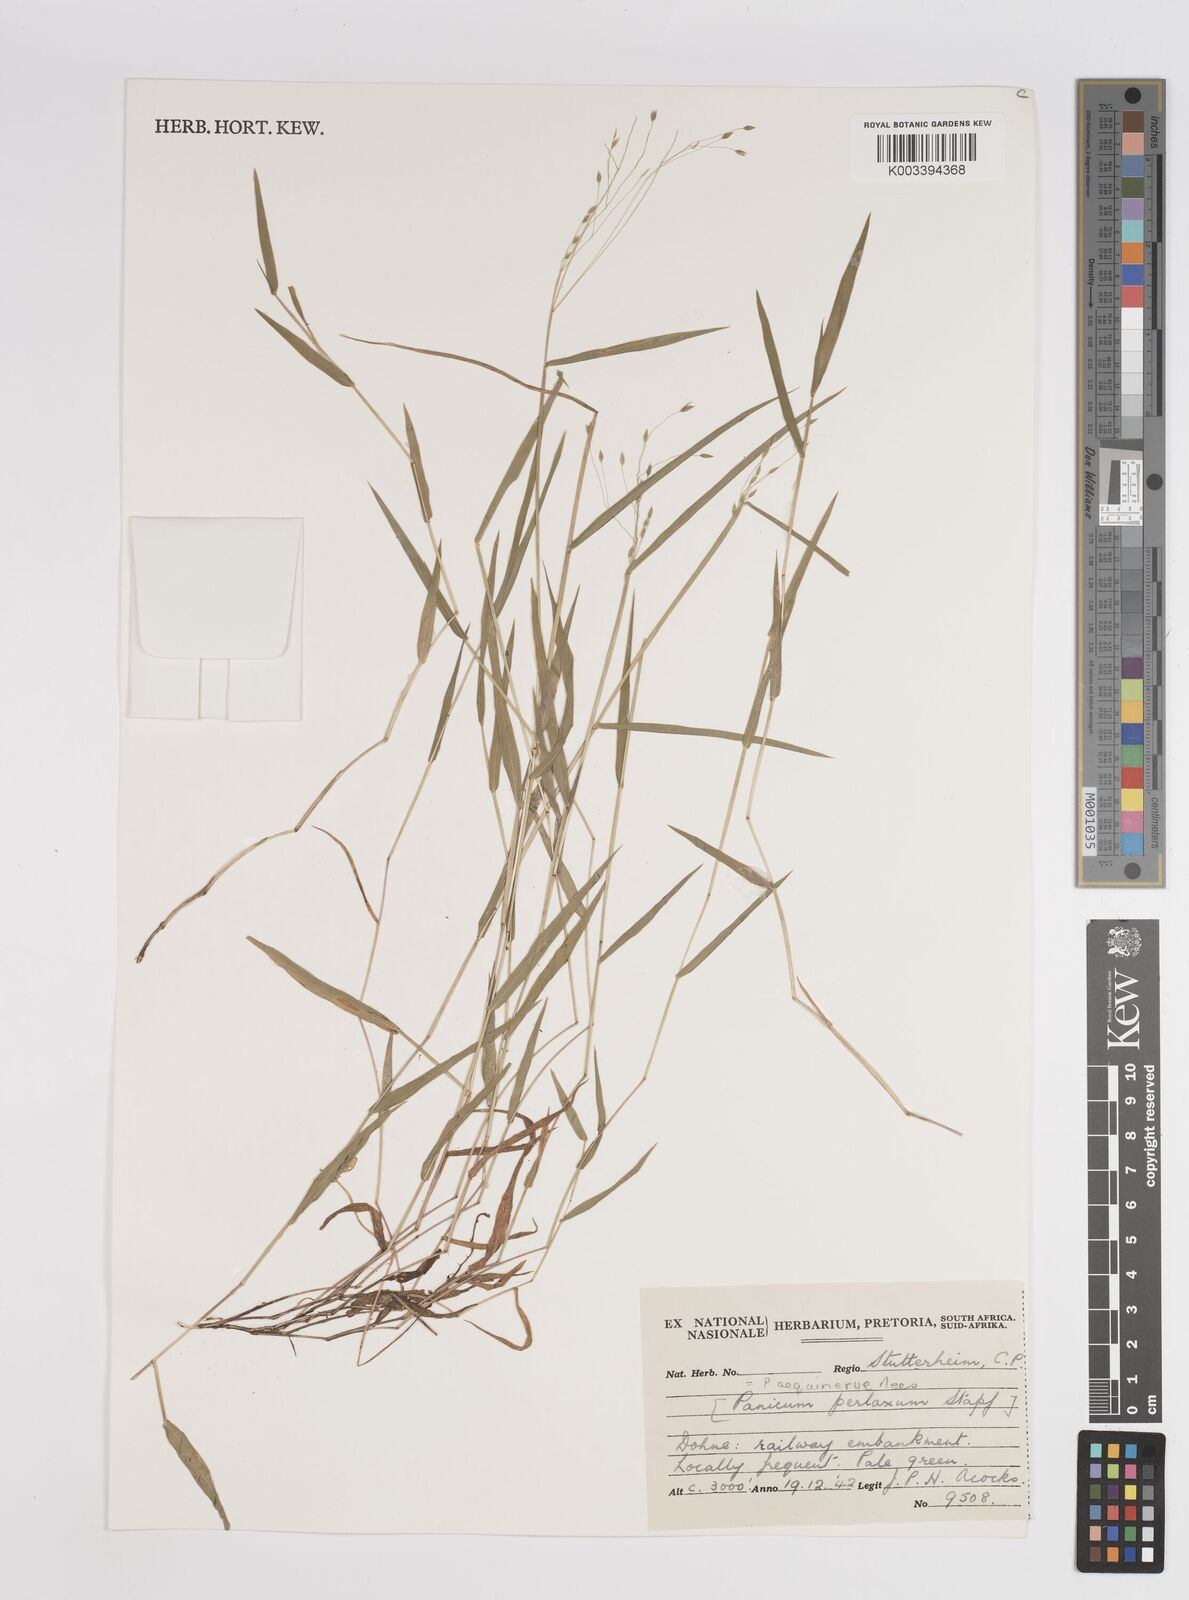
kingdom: Plantae
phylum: Tracheophyta
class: Liliopsida
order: Poales
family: Poaceae
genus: Panicum
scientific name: Panicum aequinerve
